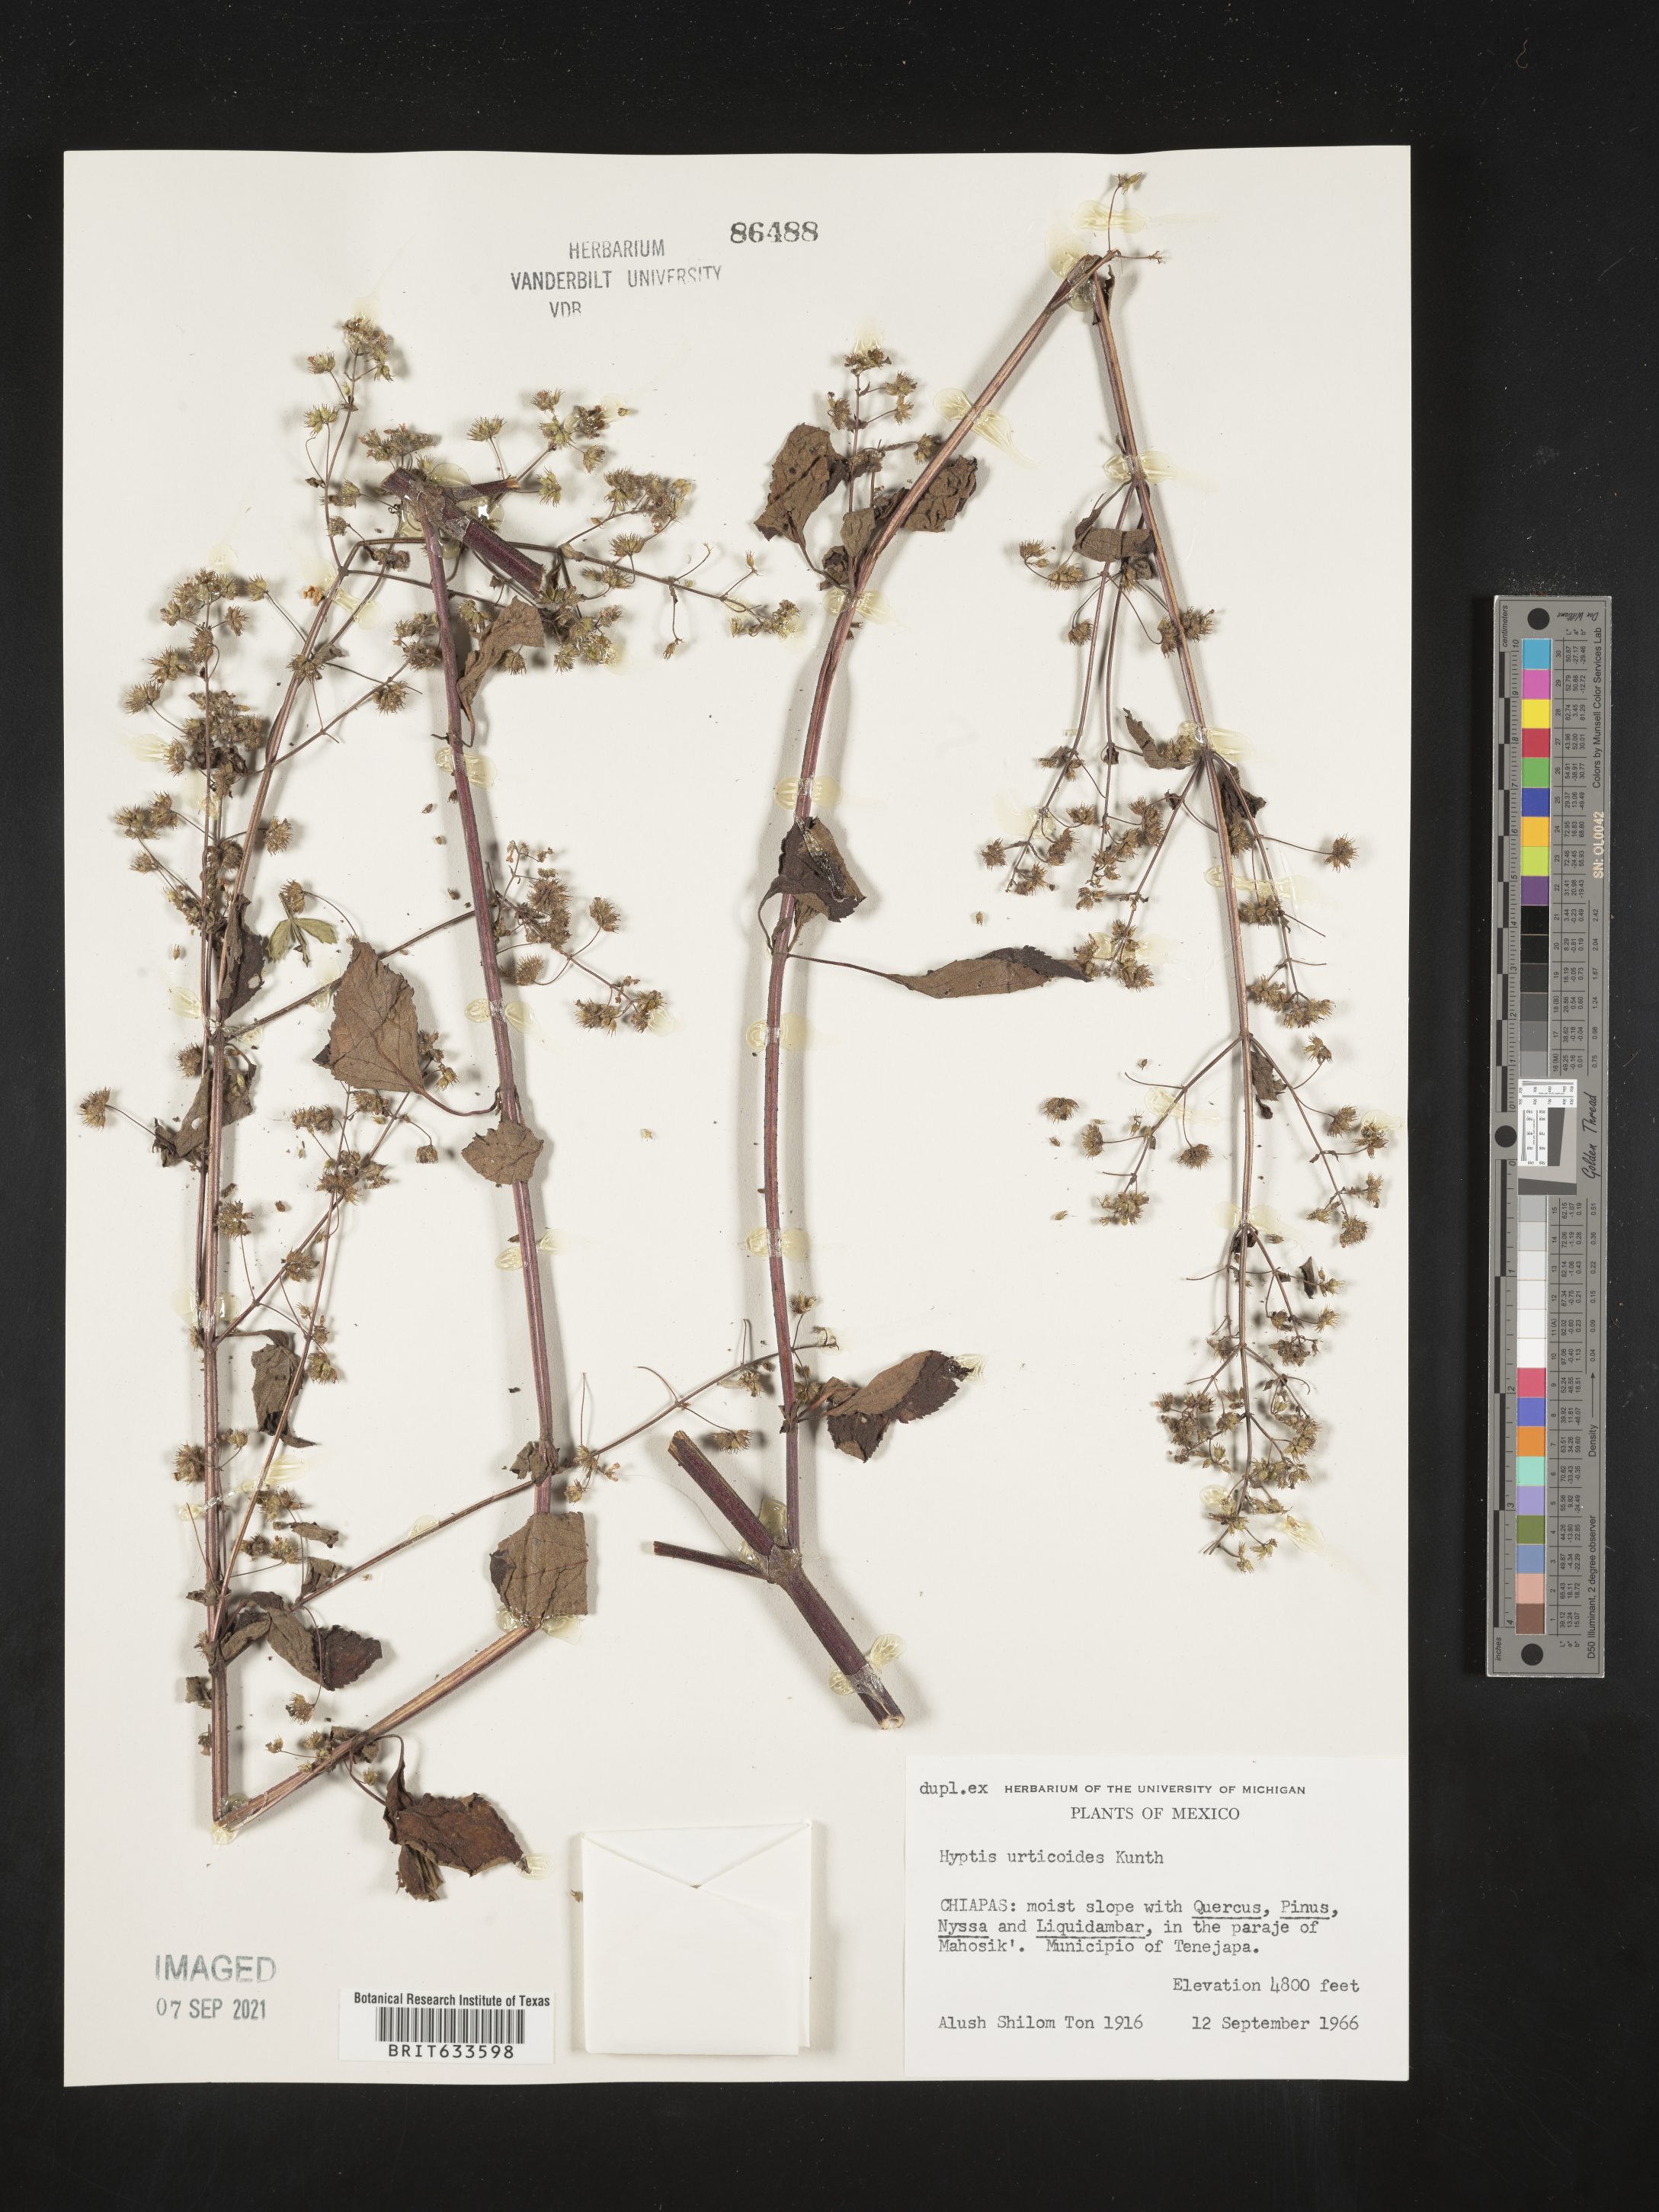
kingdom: Plantae
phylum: Tracheophyta
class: Magnoliopsida
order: Lamiales
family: Lamiaceae
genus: Hyptis
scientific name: Hyptis
